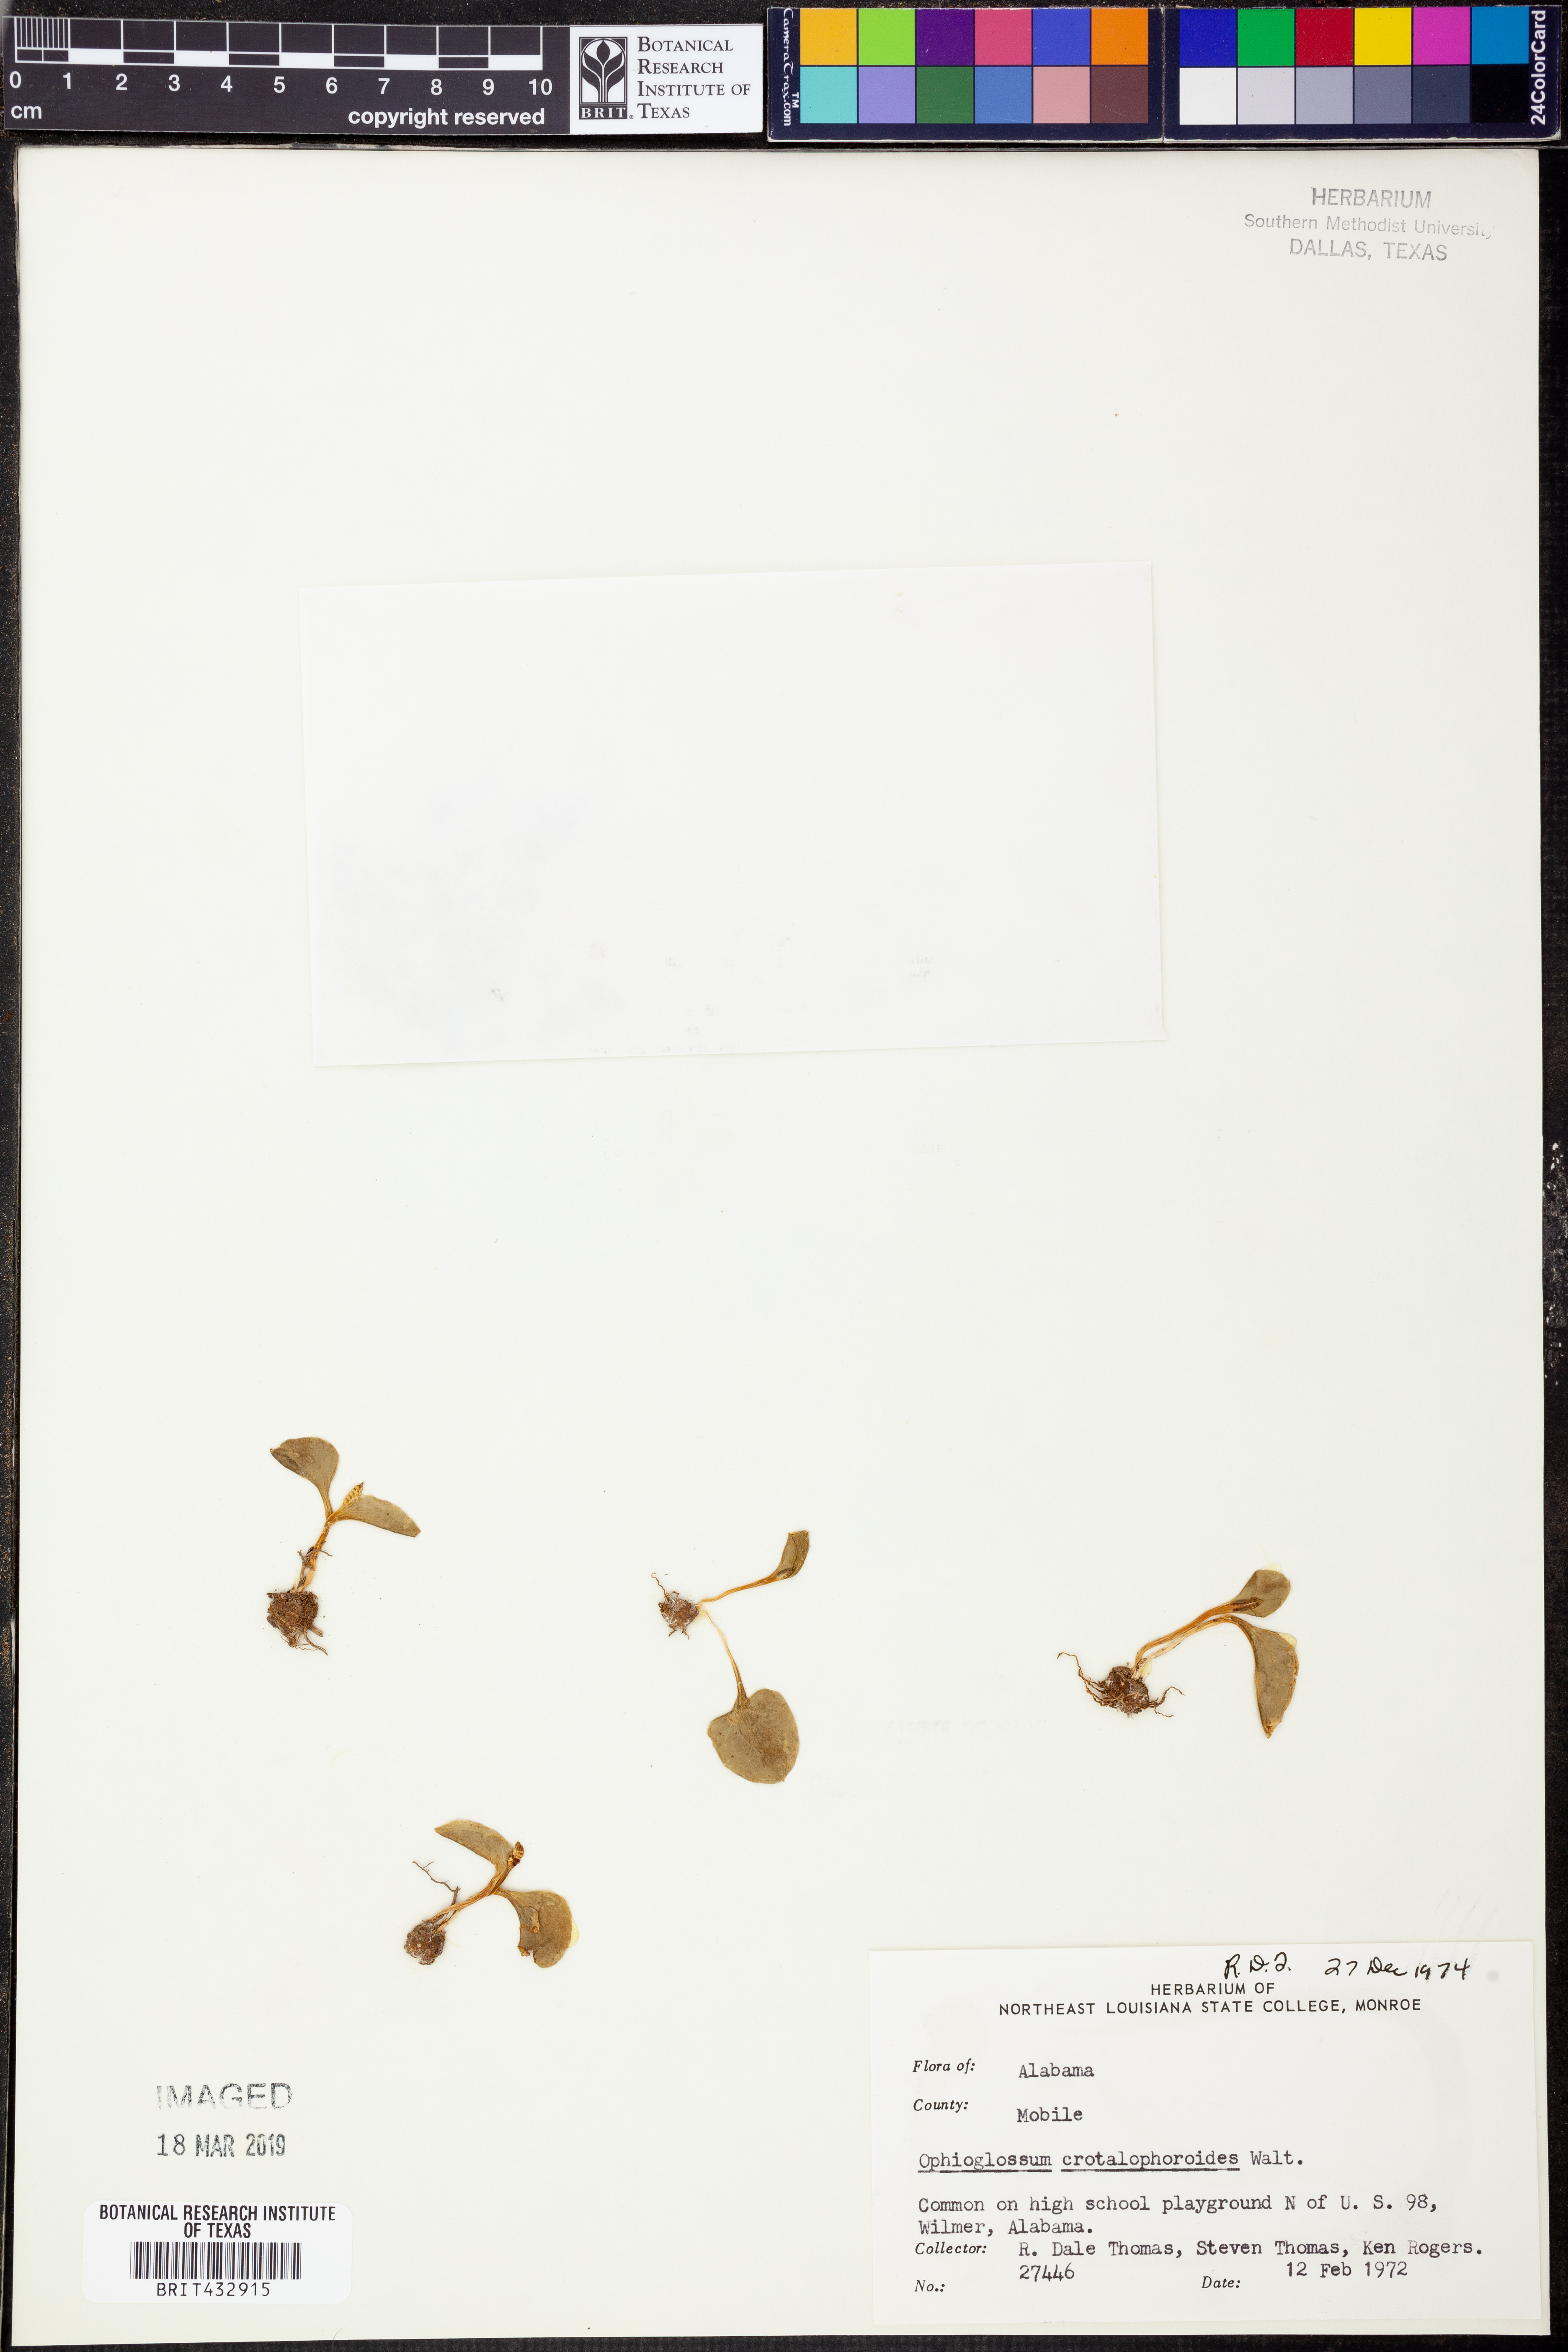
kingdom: Plantae
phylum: Tracheophyta
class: Polypodiopsida
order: Ophioglossales
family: Ophioglossaceae
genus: Ophioglossum
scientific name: Ophioglossum crotalophoroides
